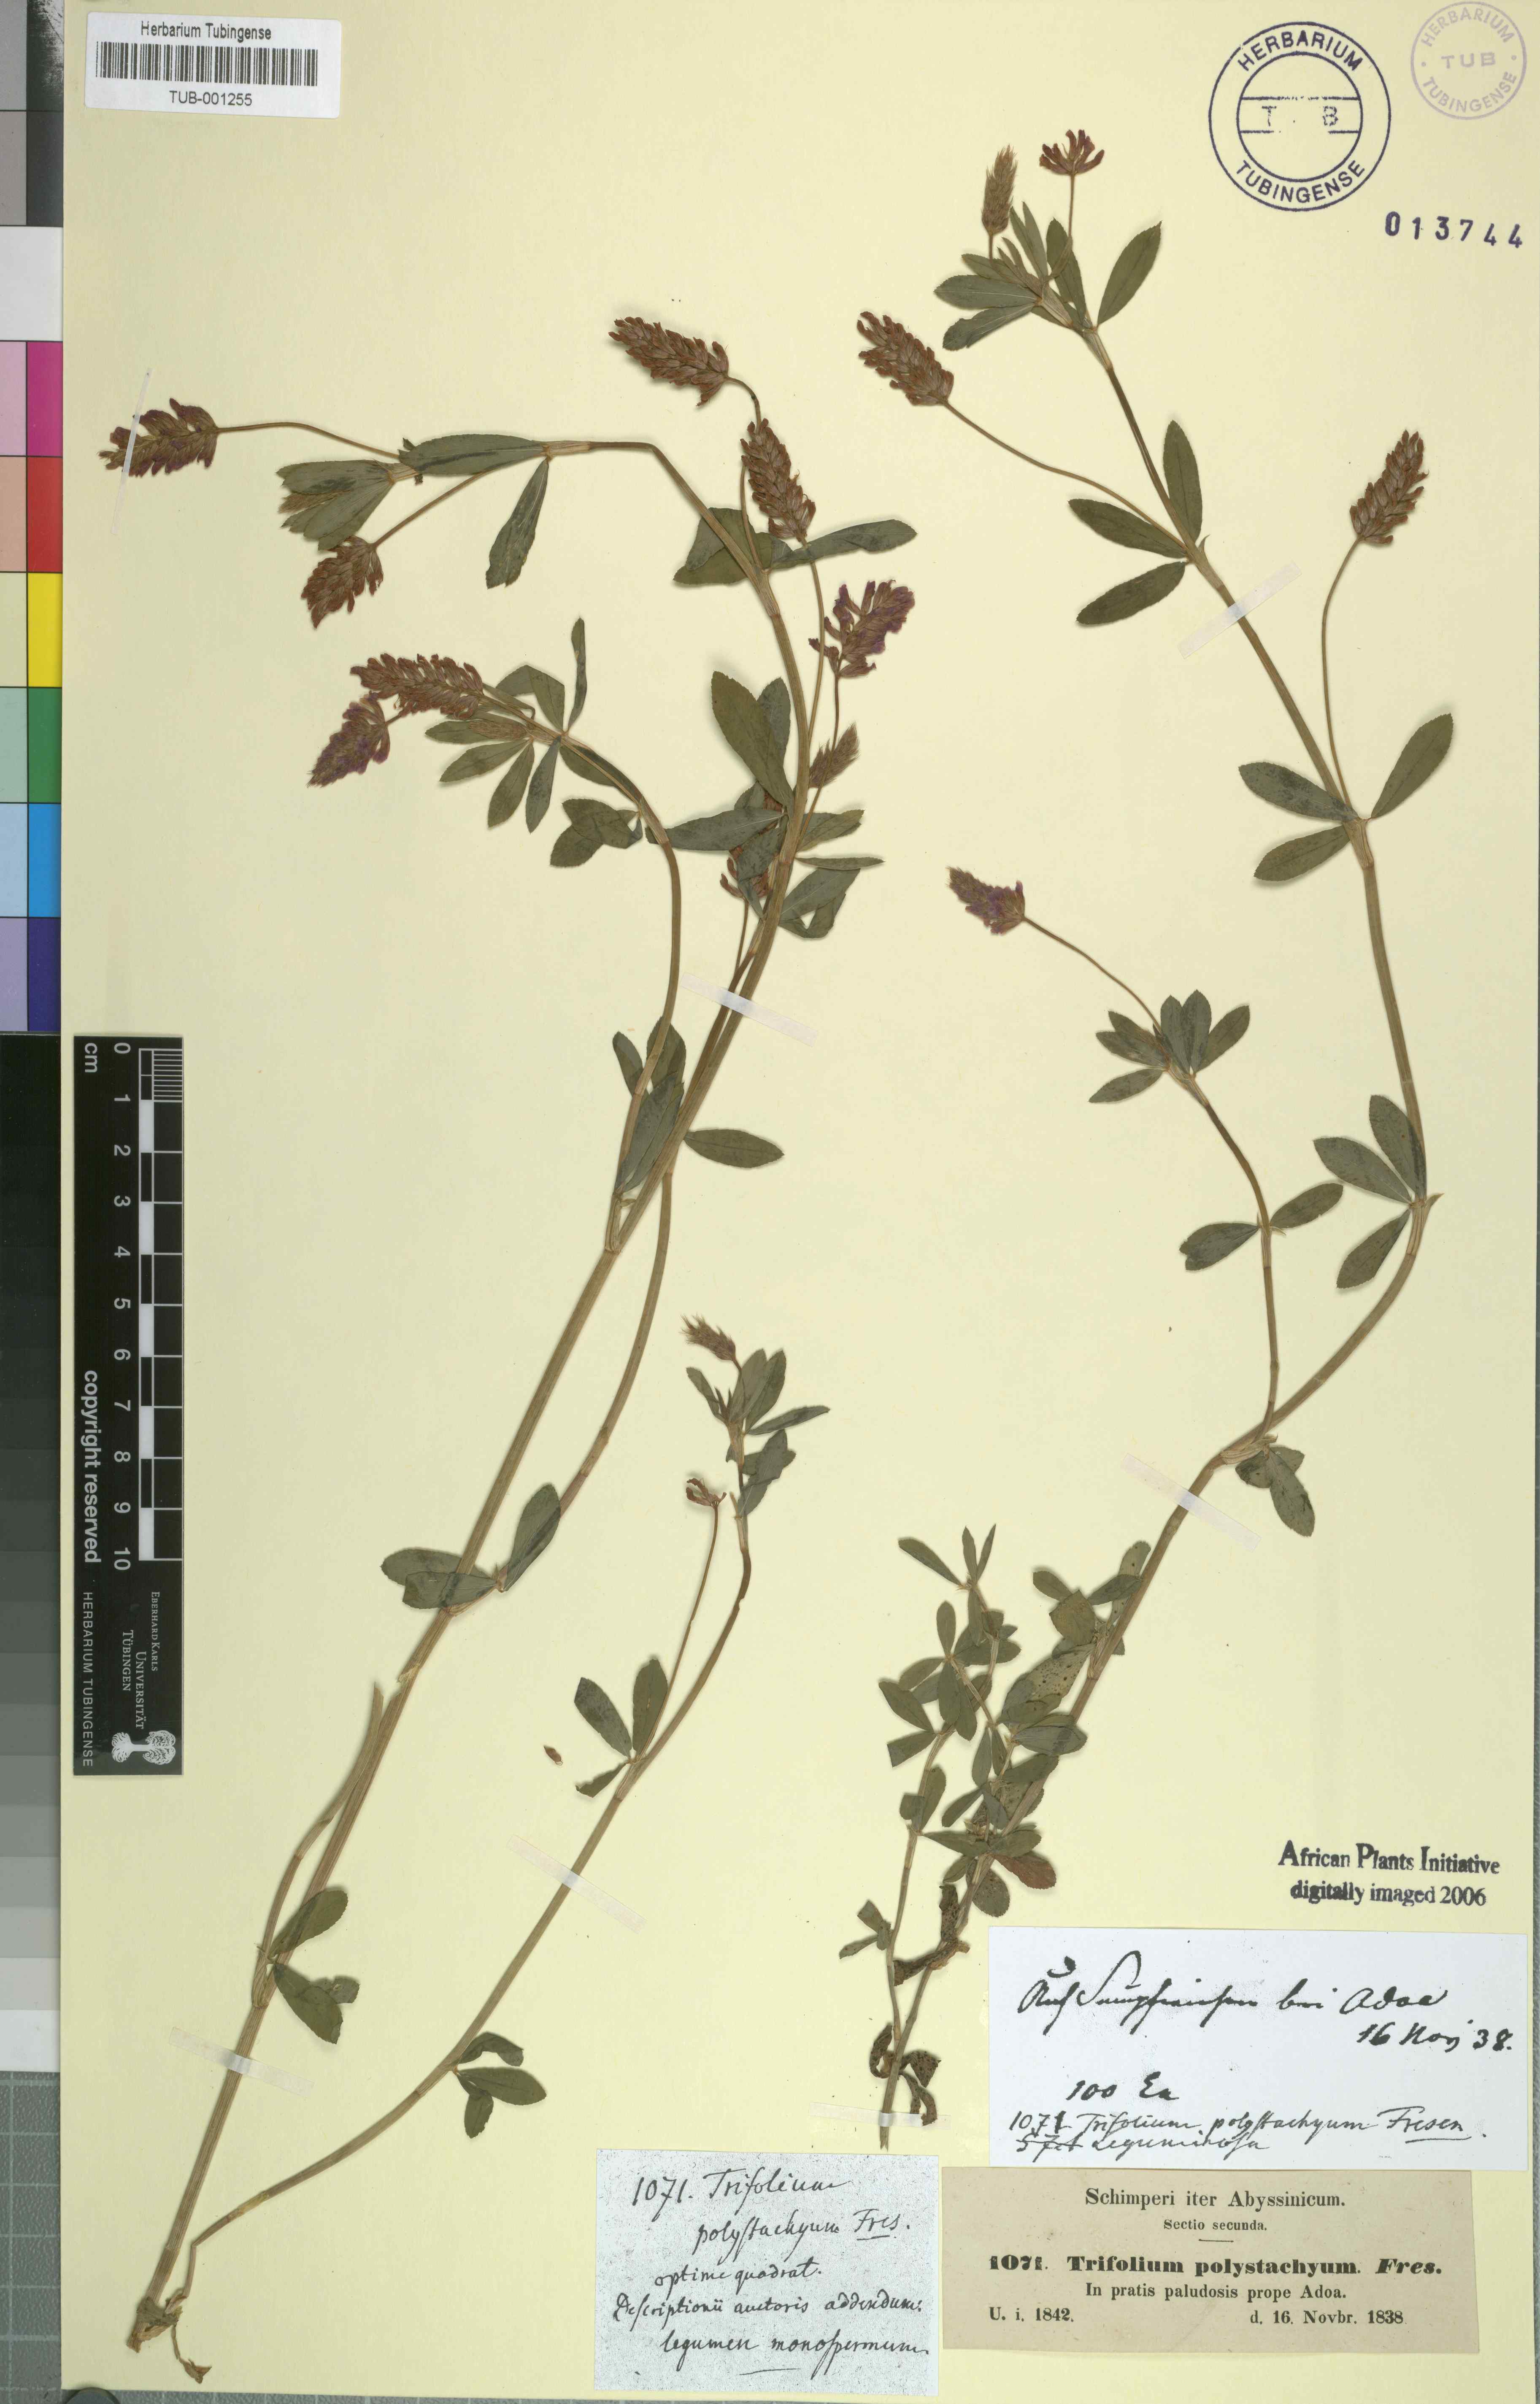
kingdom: Plantae
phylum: Tracheophyta
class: Magnoliopsida
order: Fabales
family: Fabaceae
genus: Trifolium
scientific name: Trifolium polystachyum
